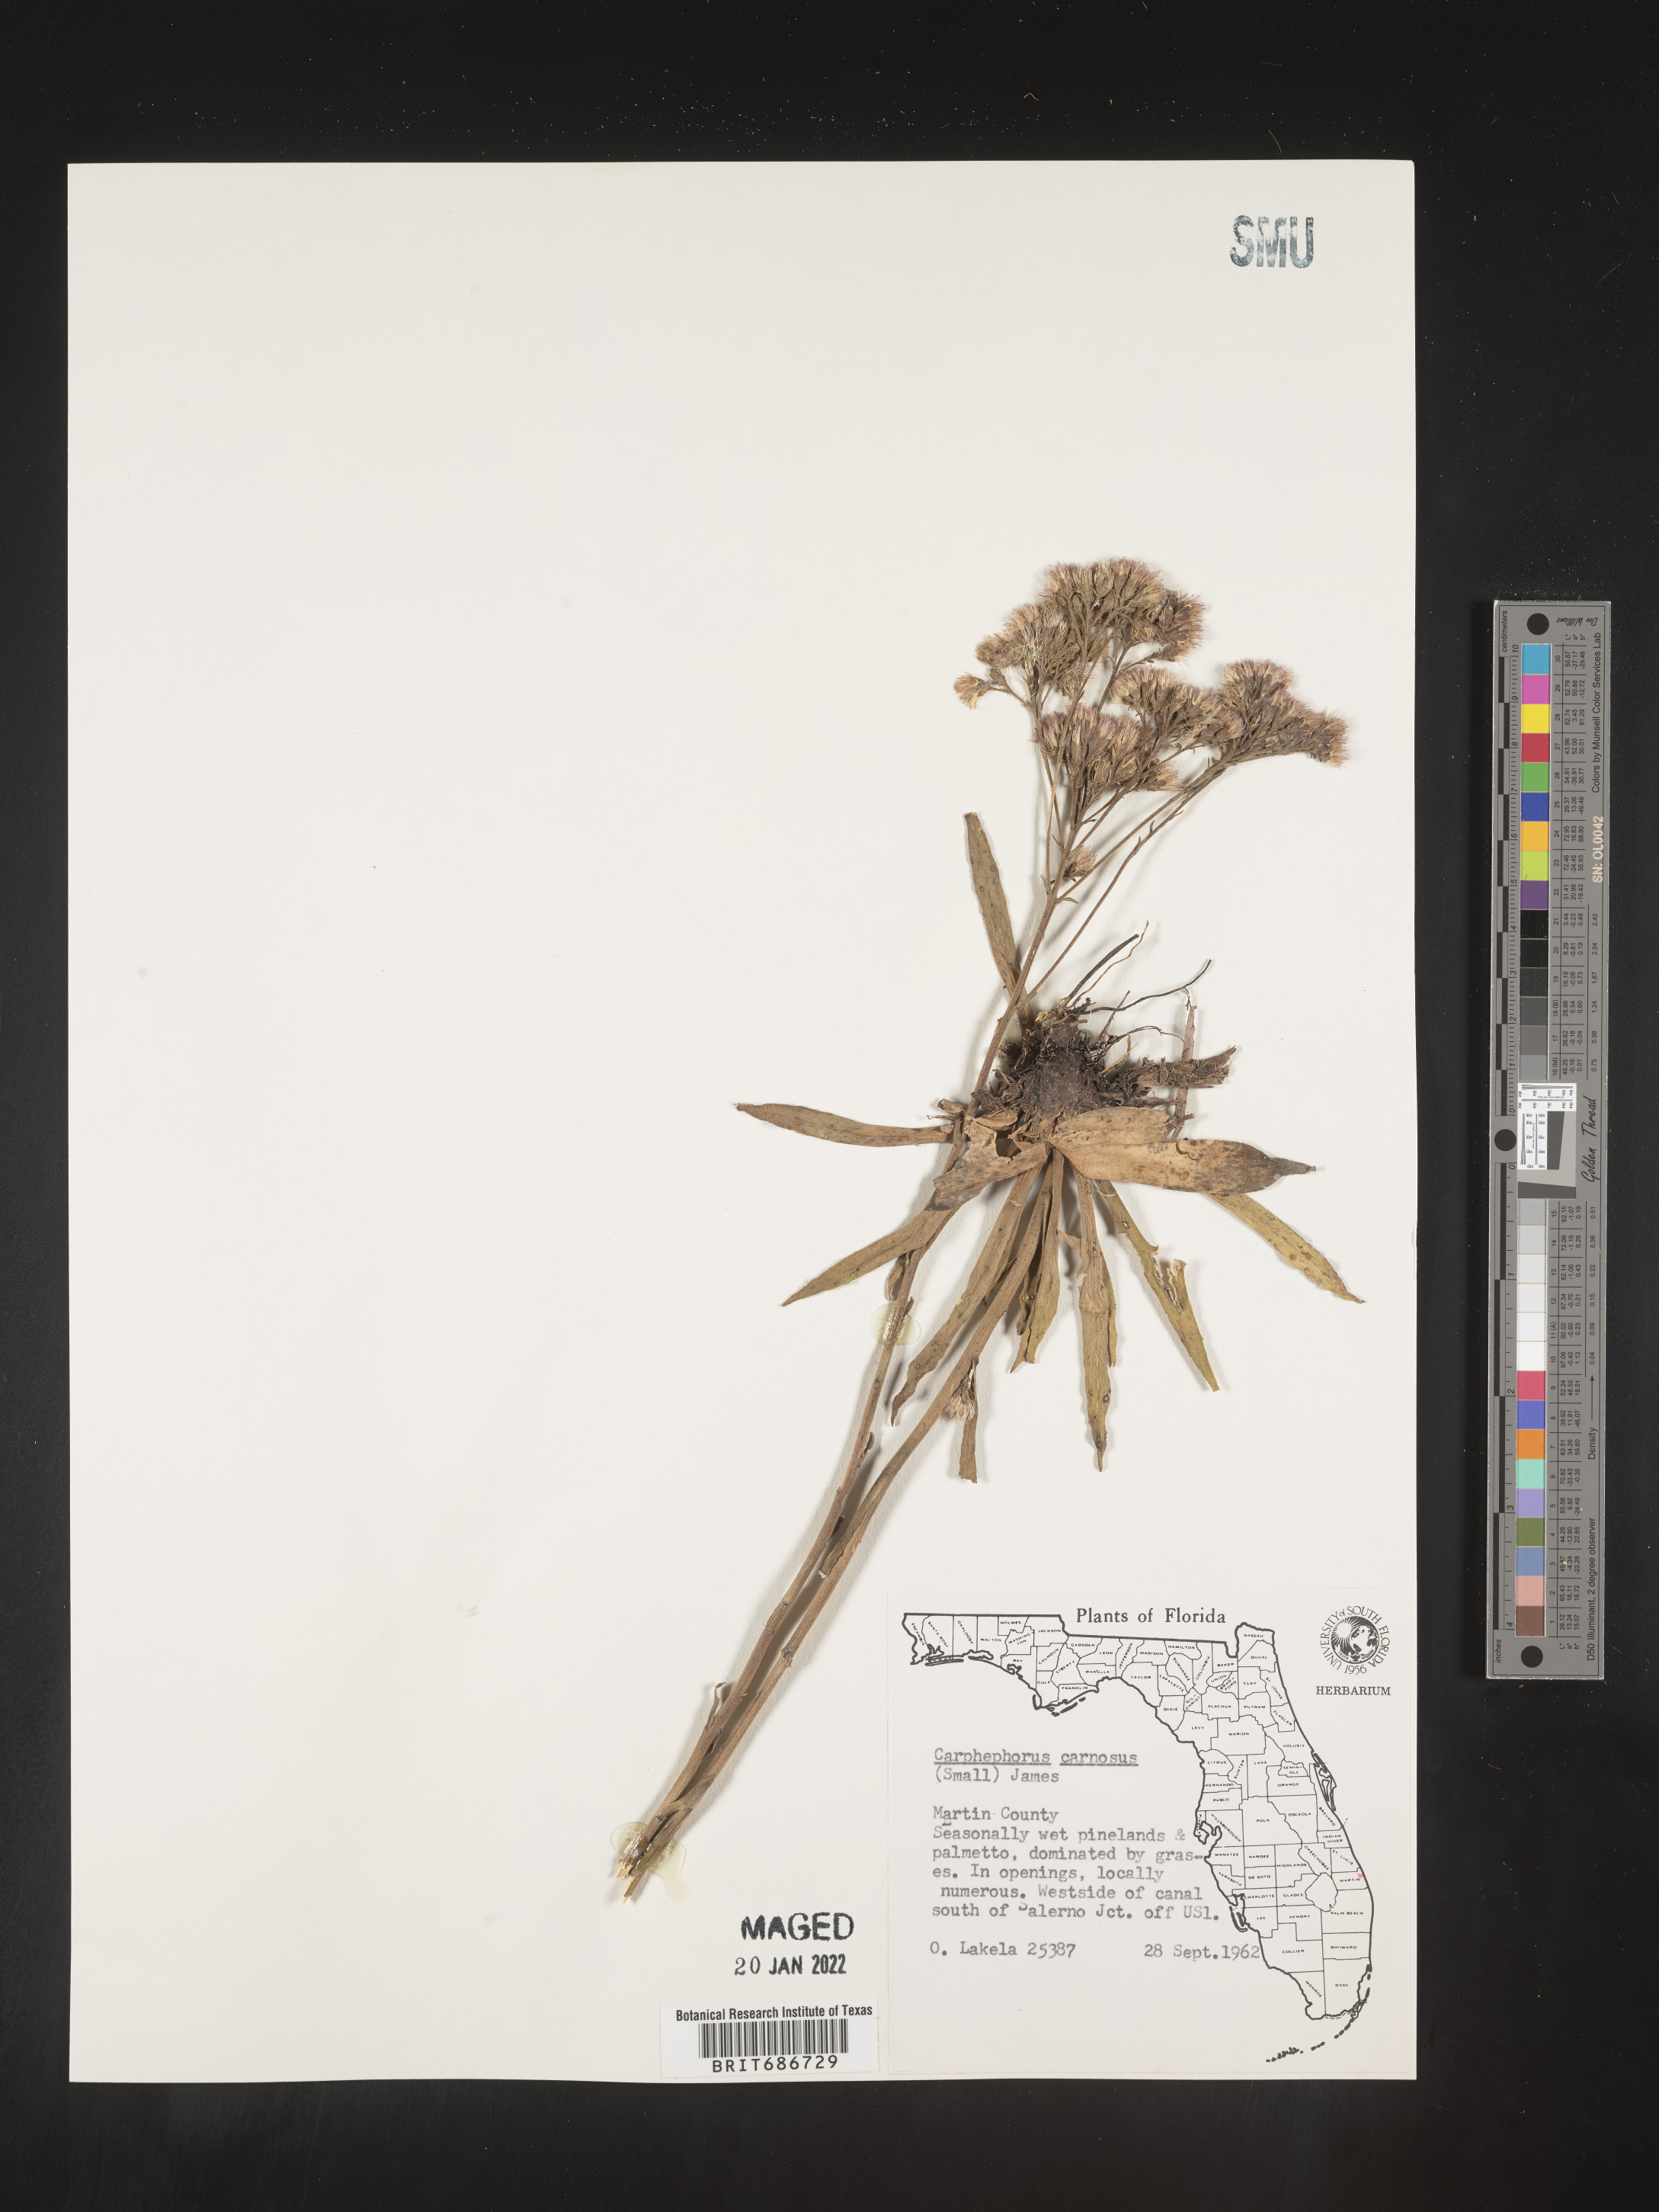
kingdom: Plantae
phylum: Tracheophyta
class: Magnoliopsida
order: Asterales
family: Asteraceae
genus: Carphephorus
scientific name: Carphephorus carnosus
